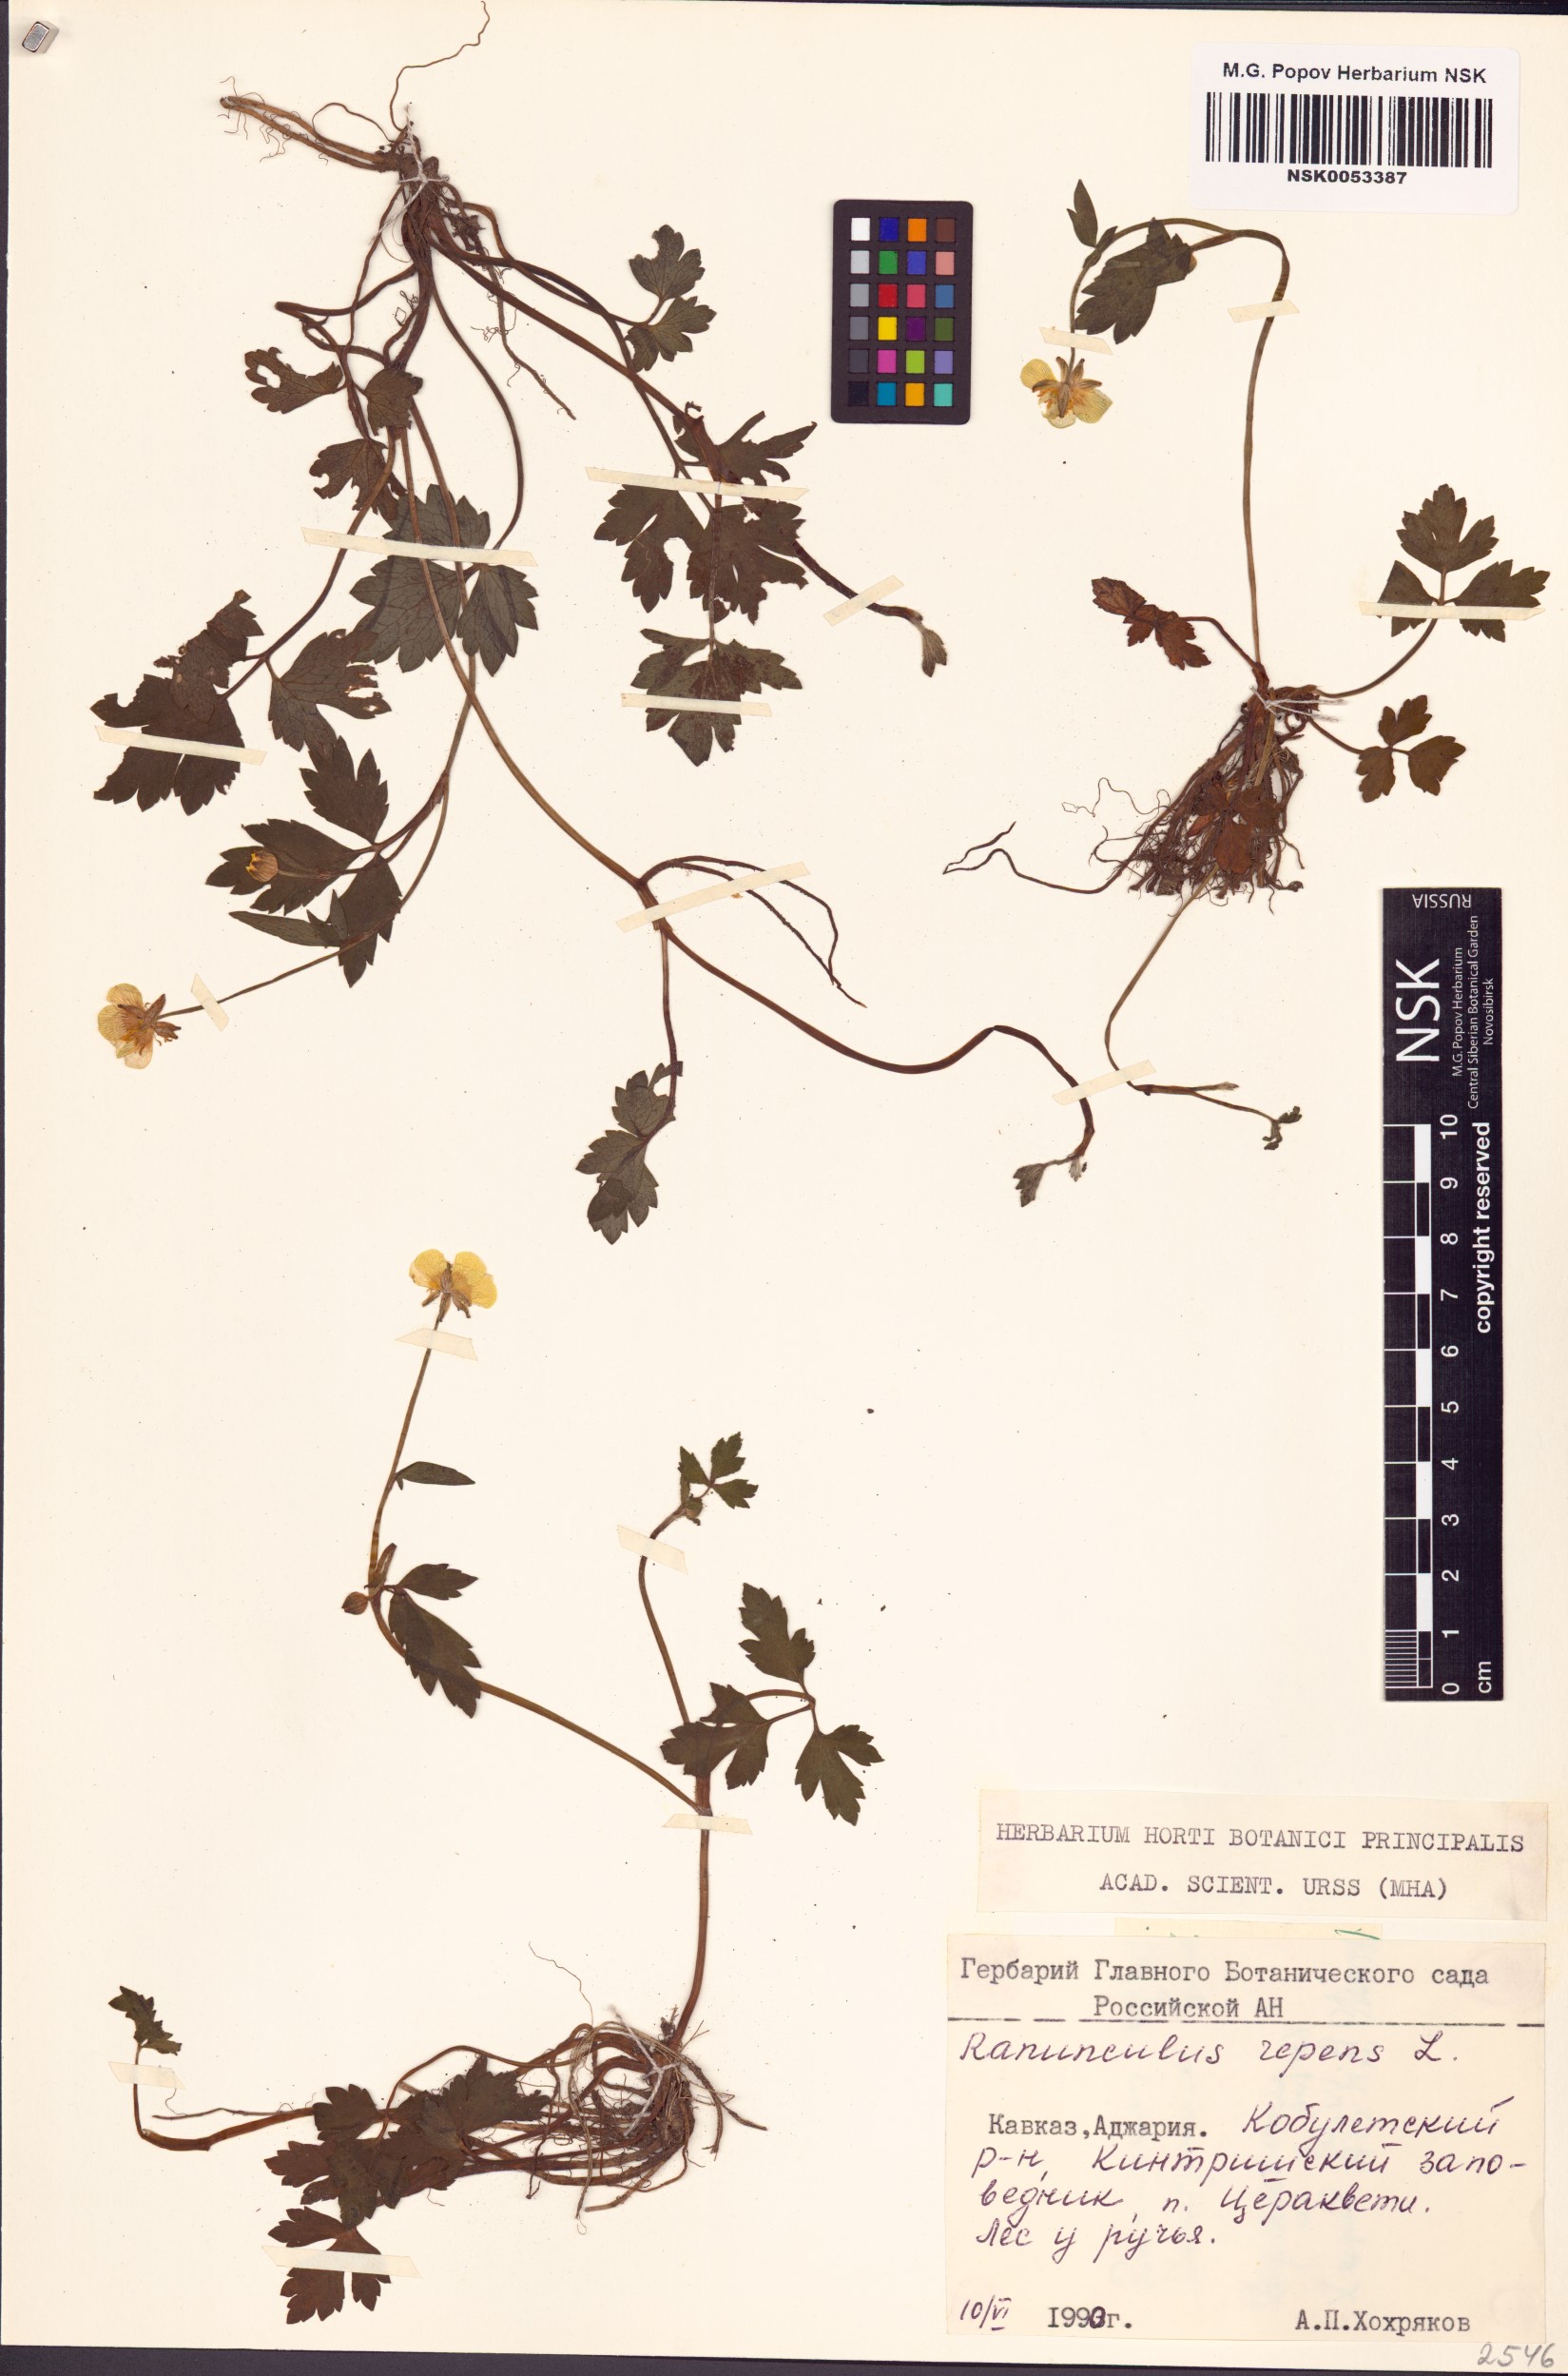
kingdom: Plantae
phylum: Tracheophyta
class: Magnoliopsida
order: Ranunculales
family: Ranunculaceae
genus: Ranunculus
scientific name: Ranunculus repens
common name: Creeping buttercup
